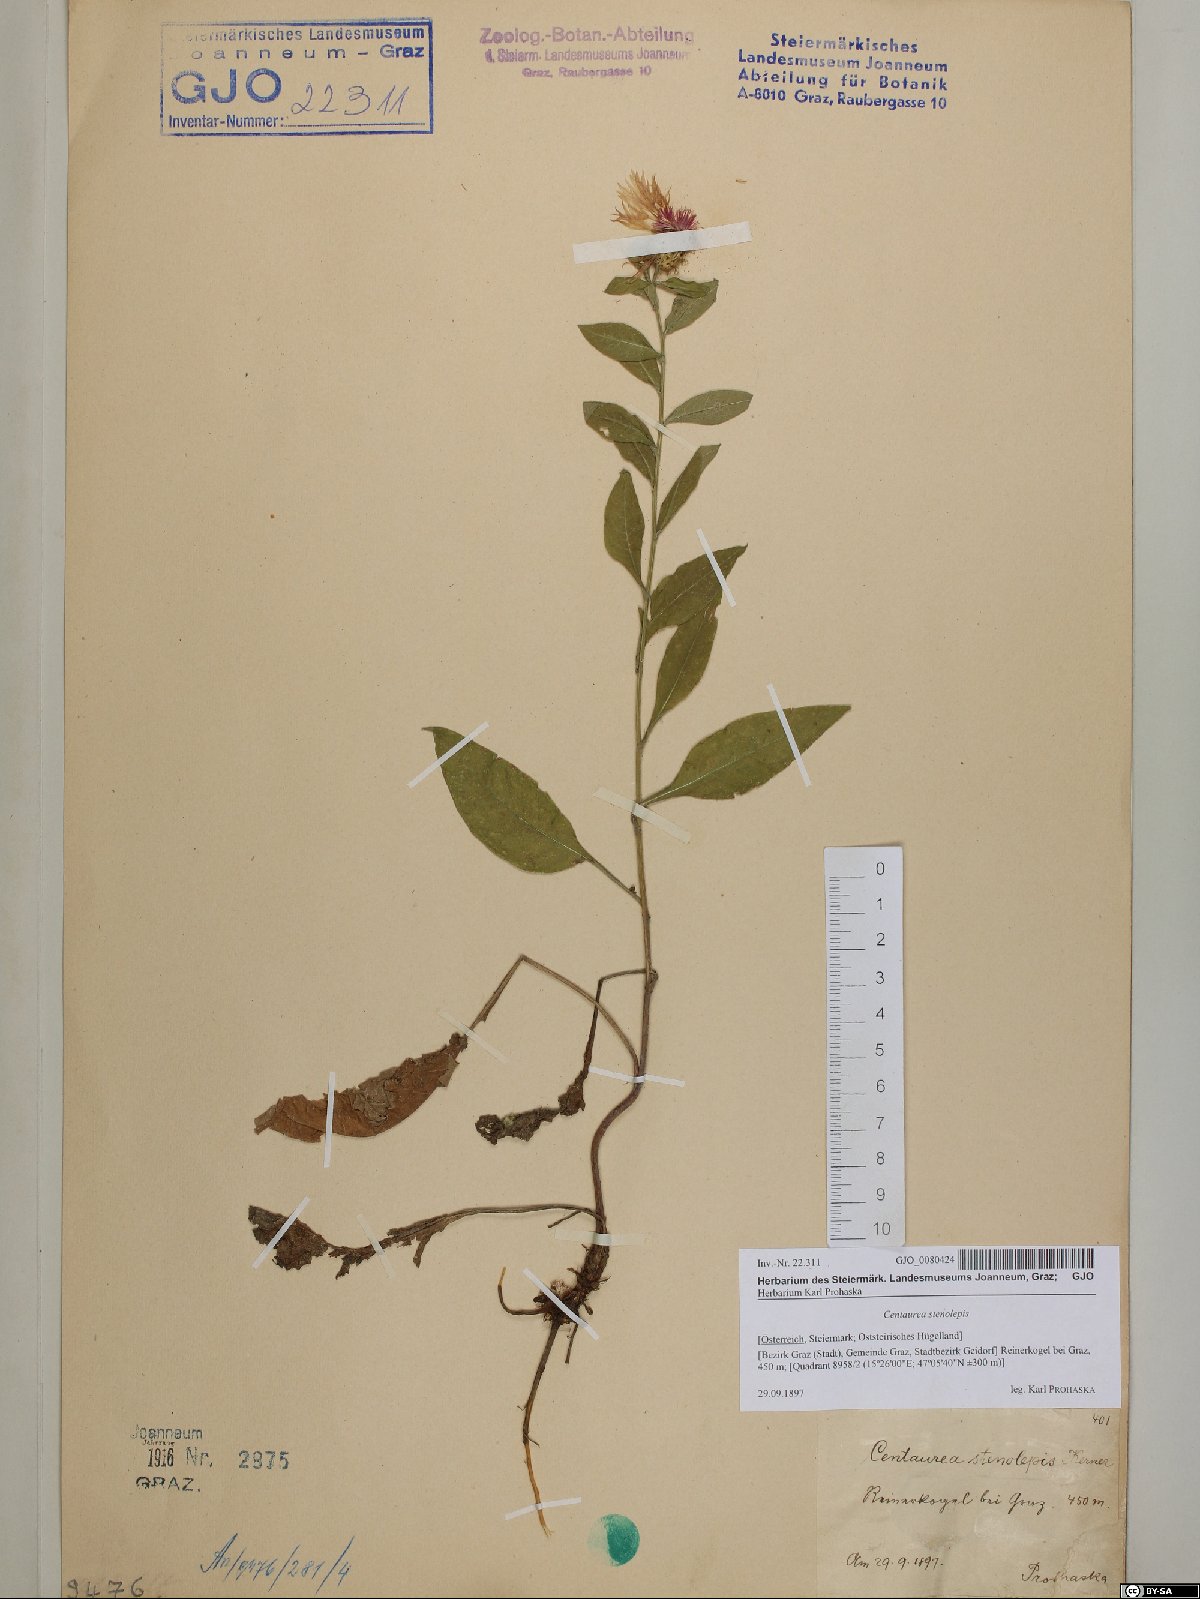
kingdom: Plantae
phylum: Tracheophyta
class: Magnoliopsida
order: Asterales
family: Asteraceae
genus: Centaurea
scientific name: Centaurea stenolepis
